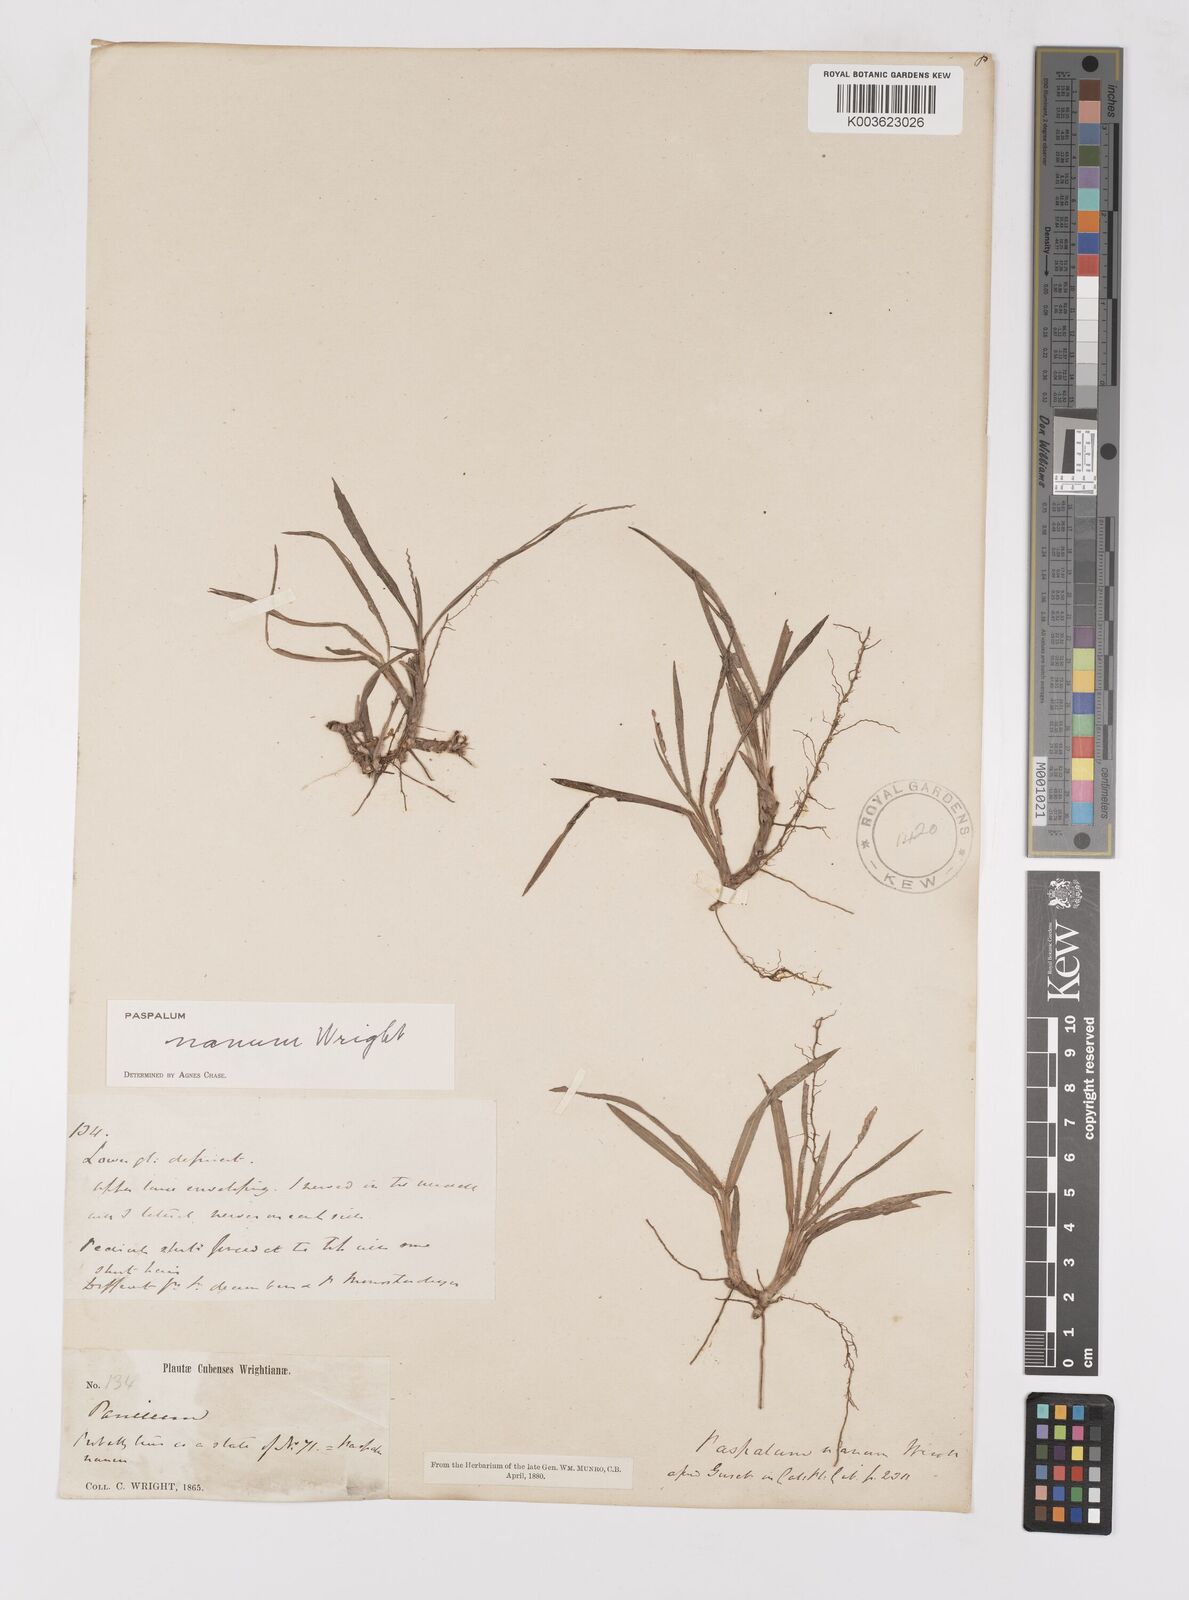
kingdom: Plantae
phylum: Tracheophyta
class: Liliopsida
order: Poales
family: Poaceae
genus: Paspalum
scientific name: Paspalum nanum
